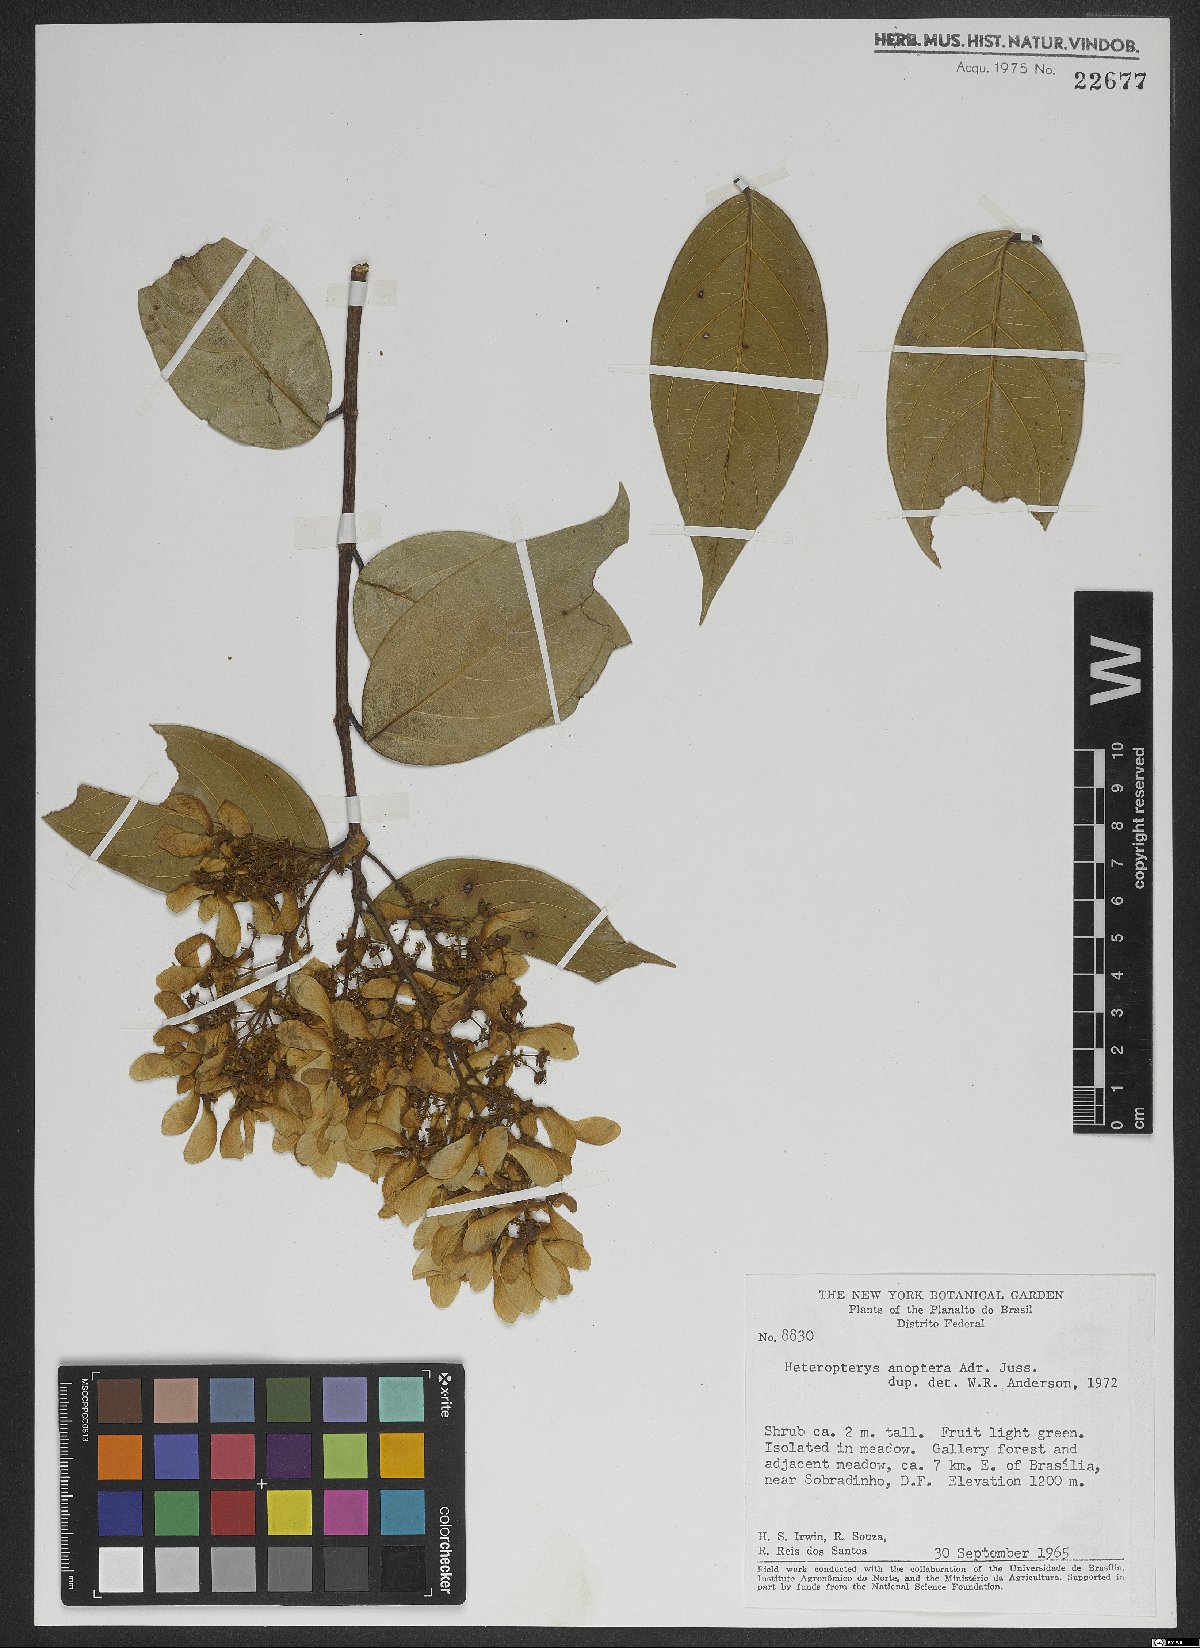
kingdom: Plantae
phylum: Tracheophyta
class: Magnoliopsida
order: Malpighiales
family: Malpighiaceae
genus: Heteropterys
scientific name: Heteropterys anoptera
